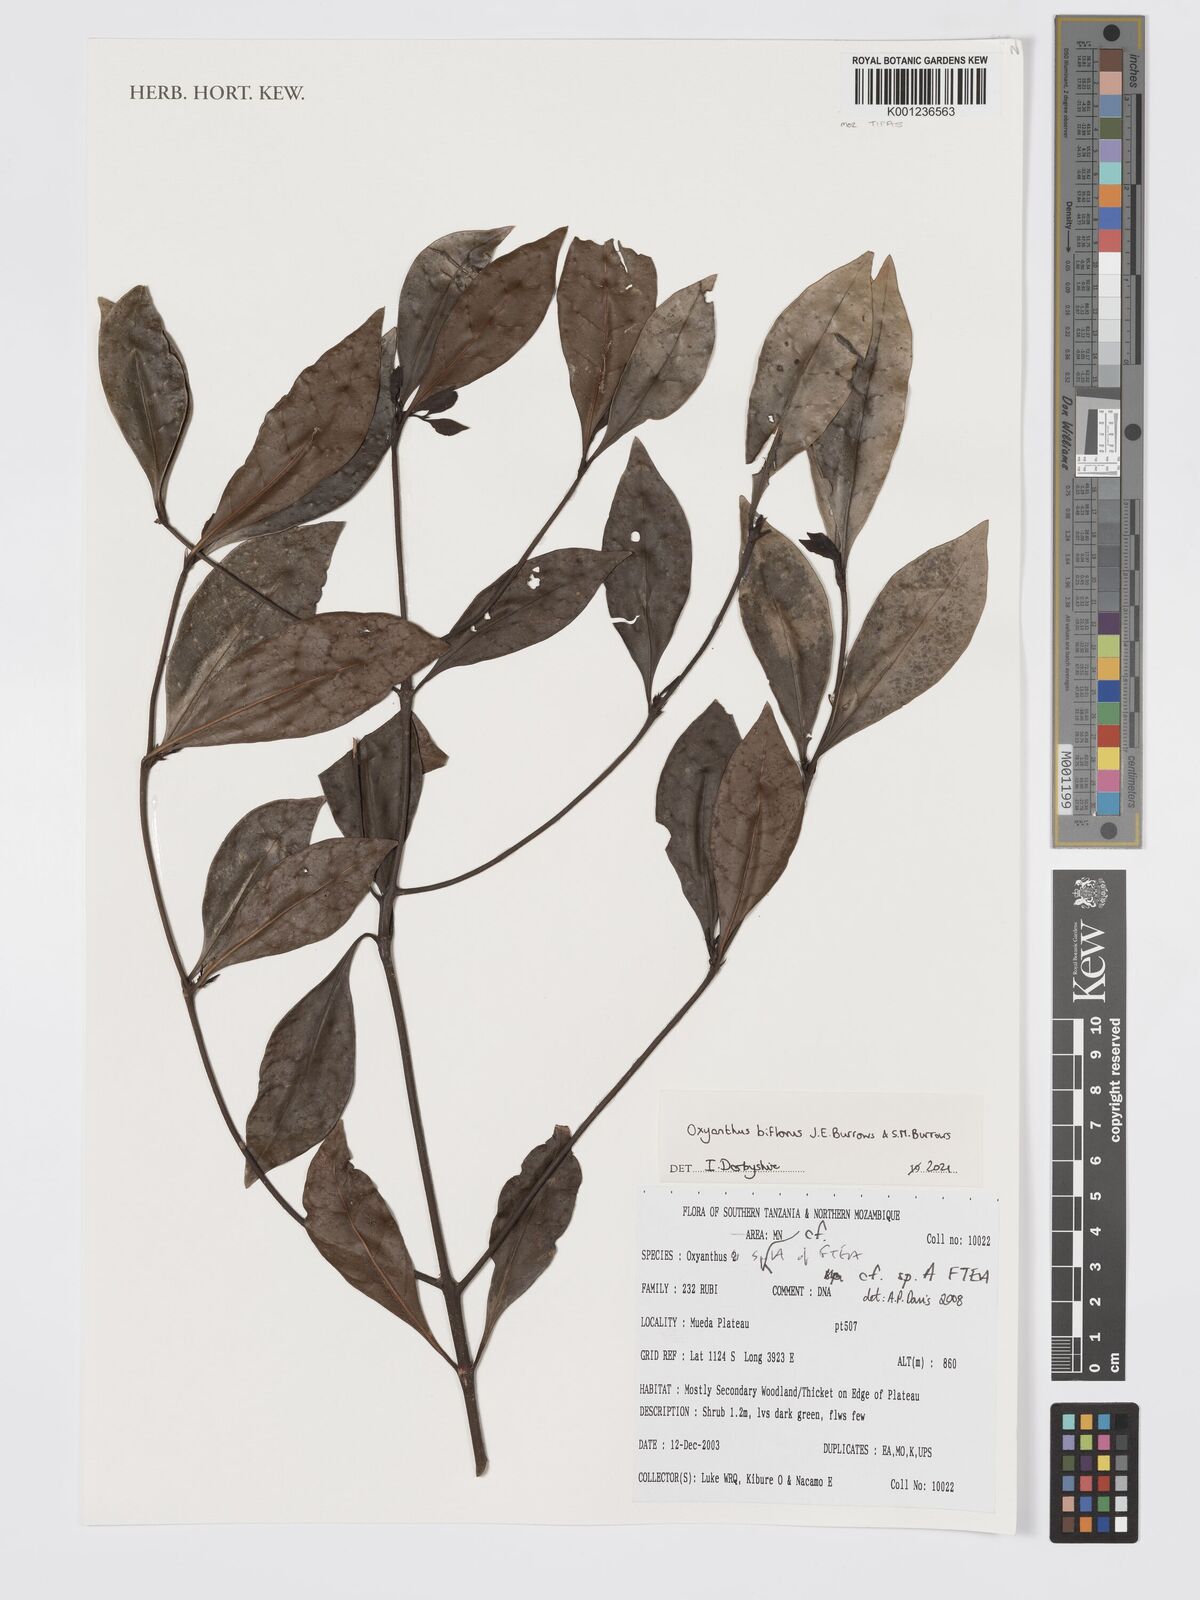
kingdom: Plantae
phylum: Tracheophyta
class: Magnoliopsida
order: Gentianales
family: Rubiaceae
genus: Oxyanthus
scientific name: Oxyanthus biflorus
